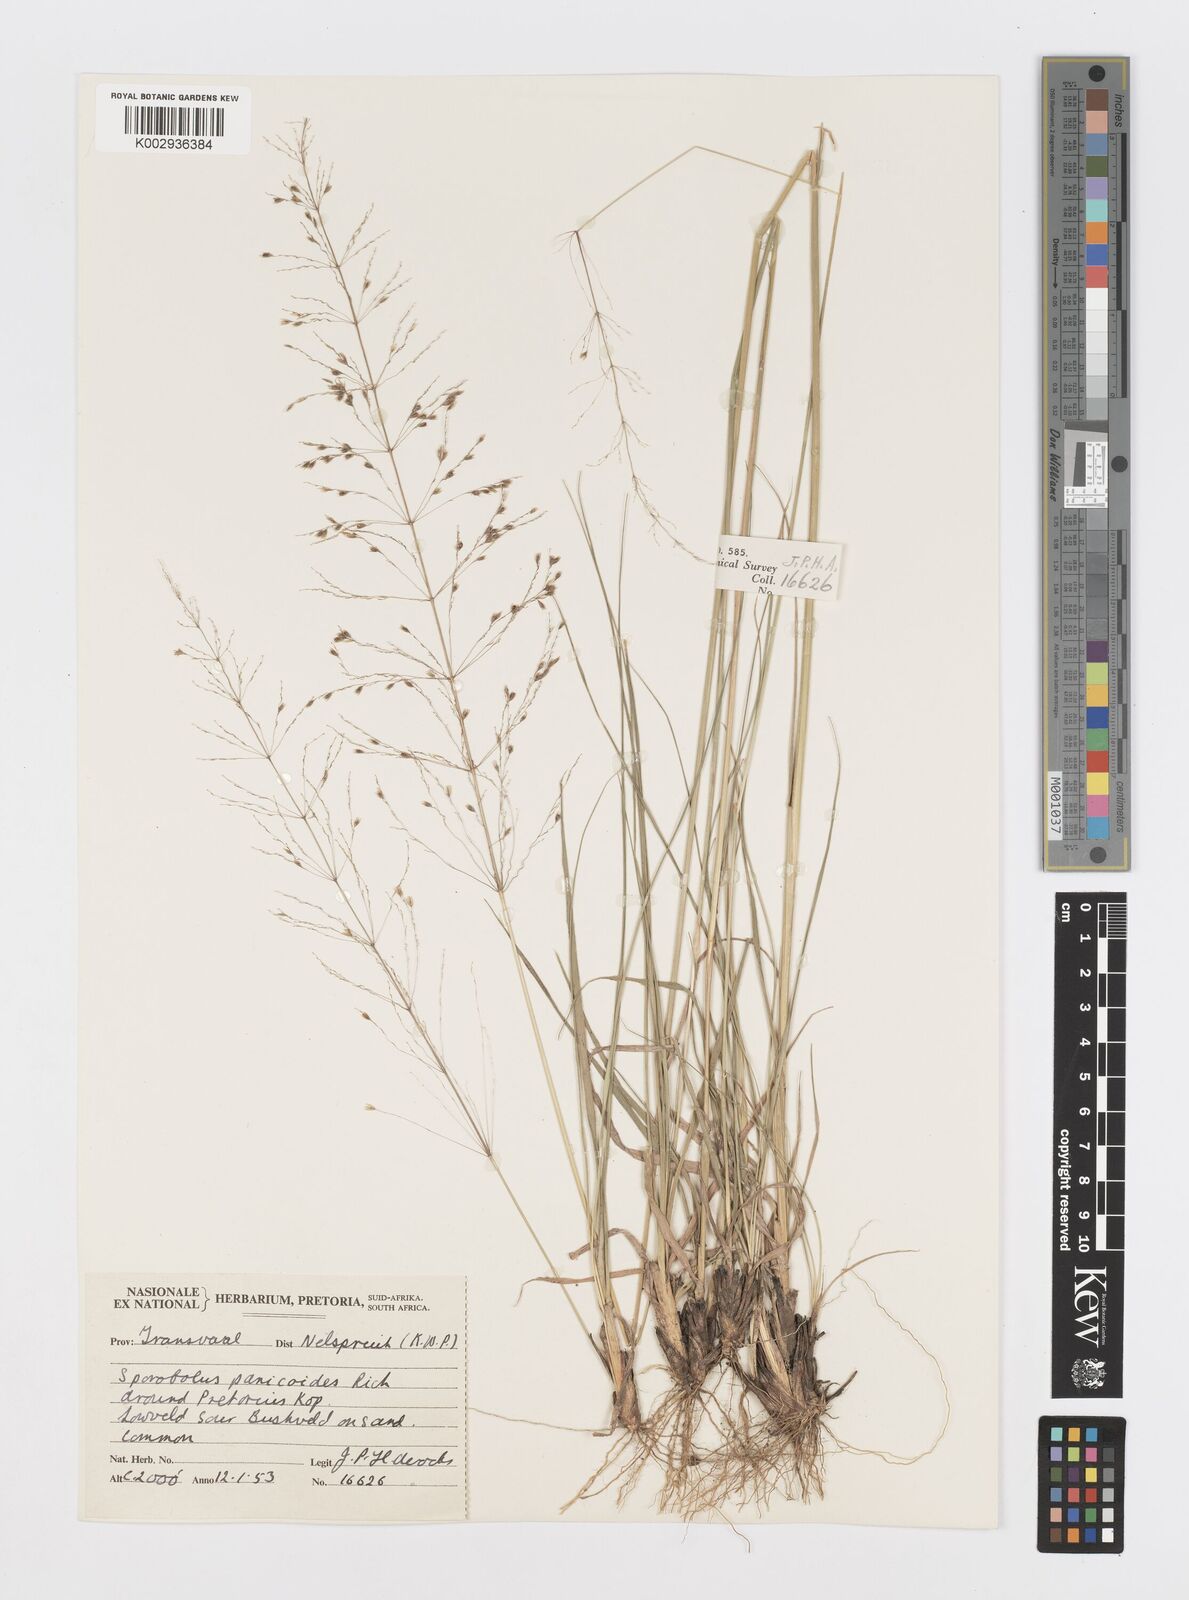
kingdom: Plantae
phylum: Tracheophyta
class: Liliopsida
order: Poales
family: Poaceae
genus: Sporobolus
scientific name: Sporobolus sanguineus
